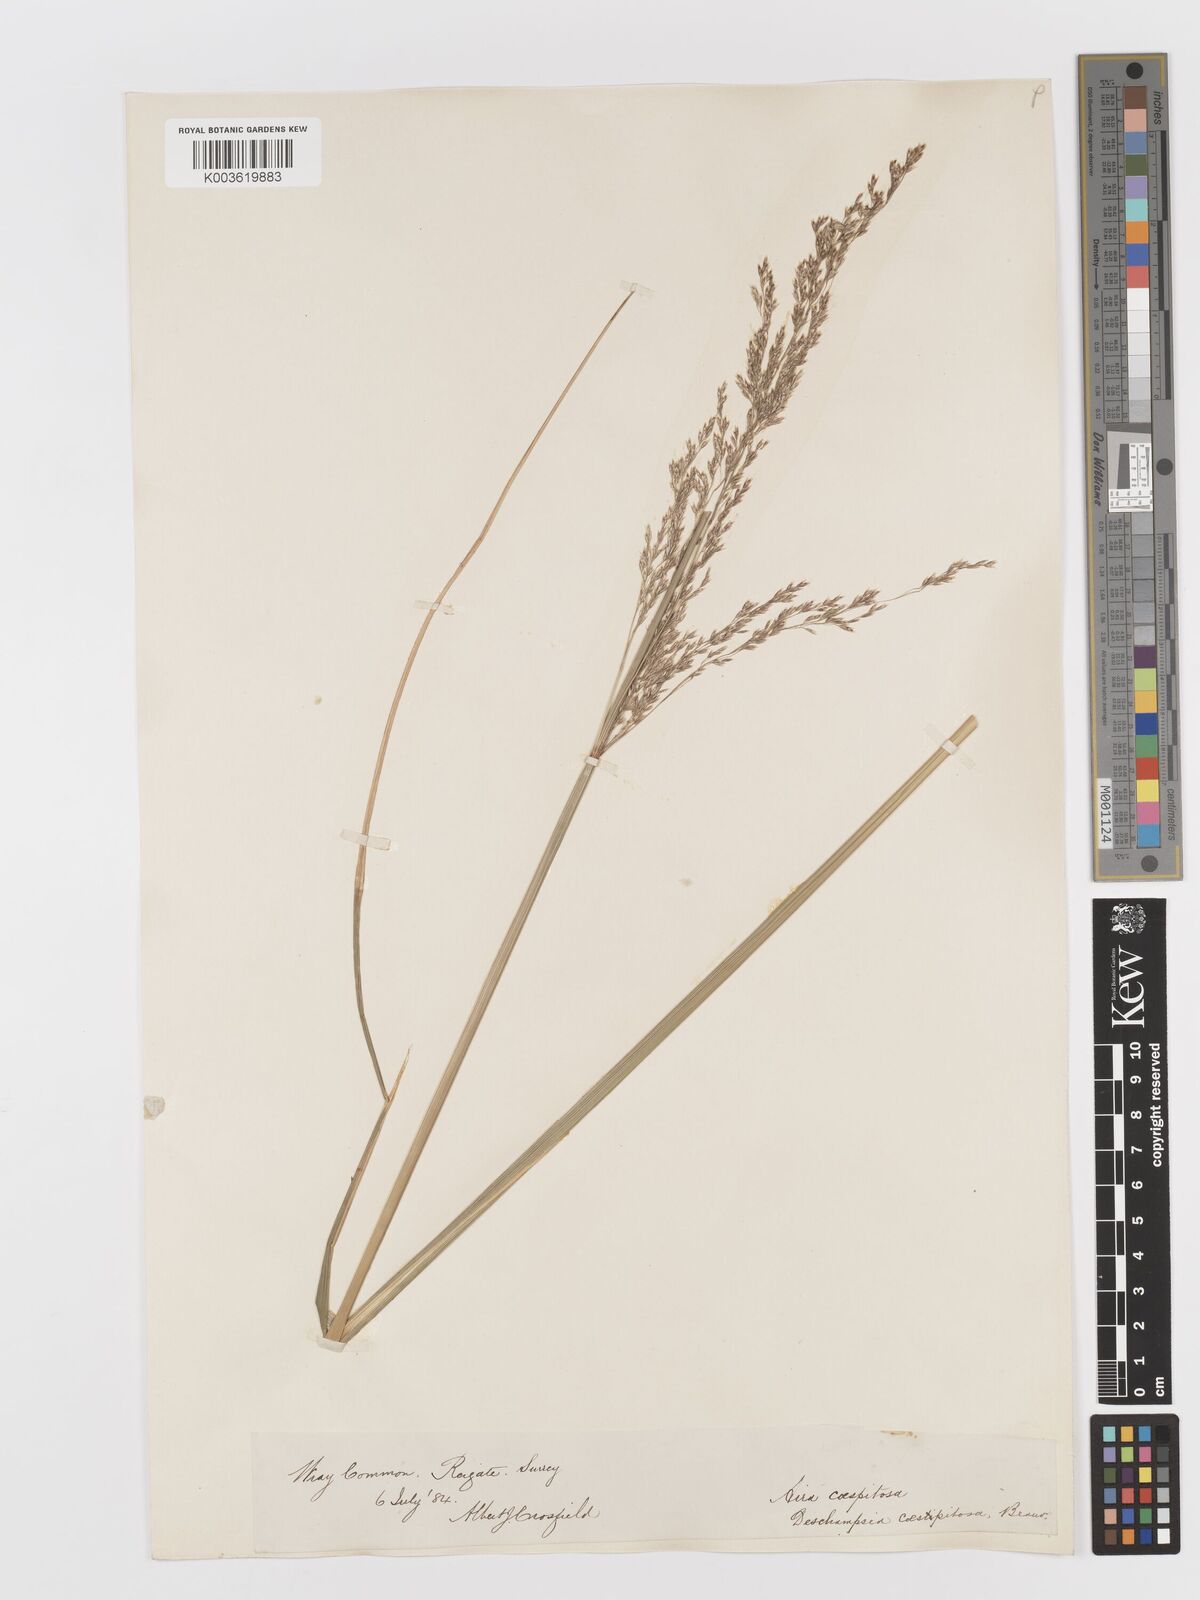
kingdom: Plantae
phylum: Tracheophyta
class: Liliopsida
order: Poales
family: Poaceae
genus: Deschampsia
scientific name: Deschampsia cespitosa
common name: Tufted hair-grass
